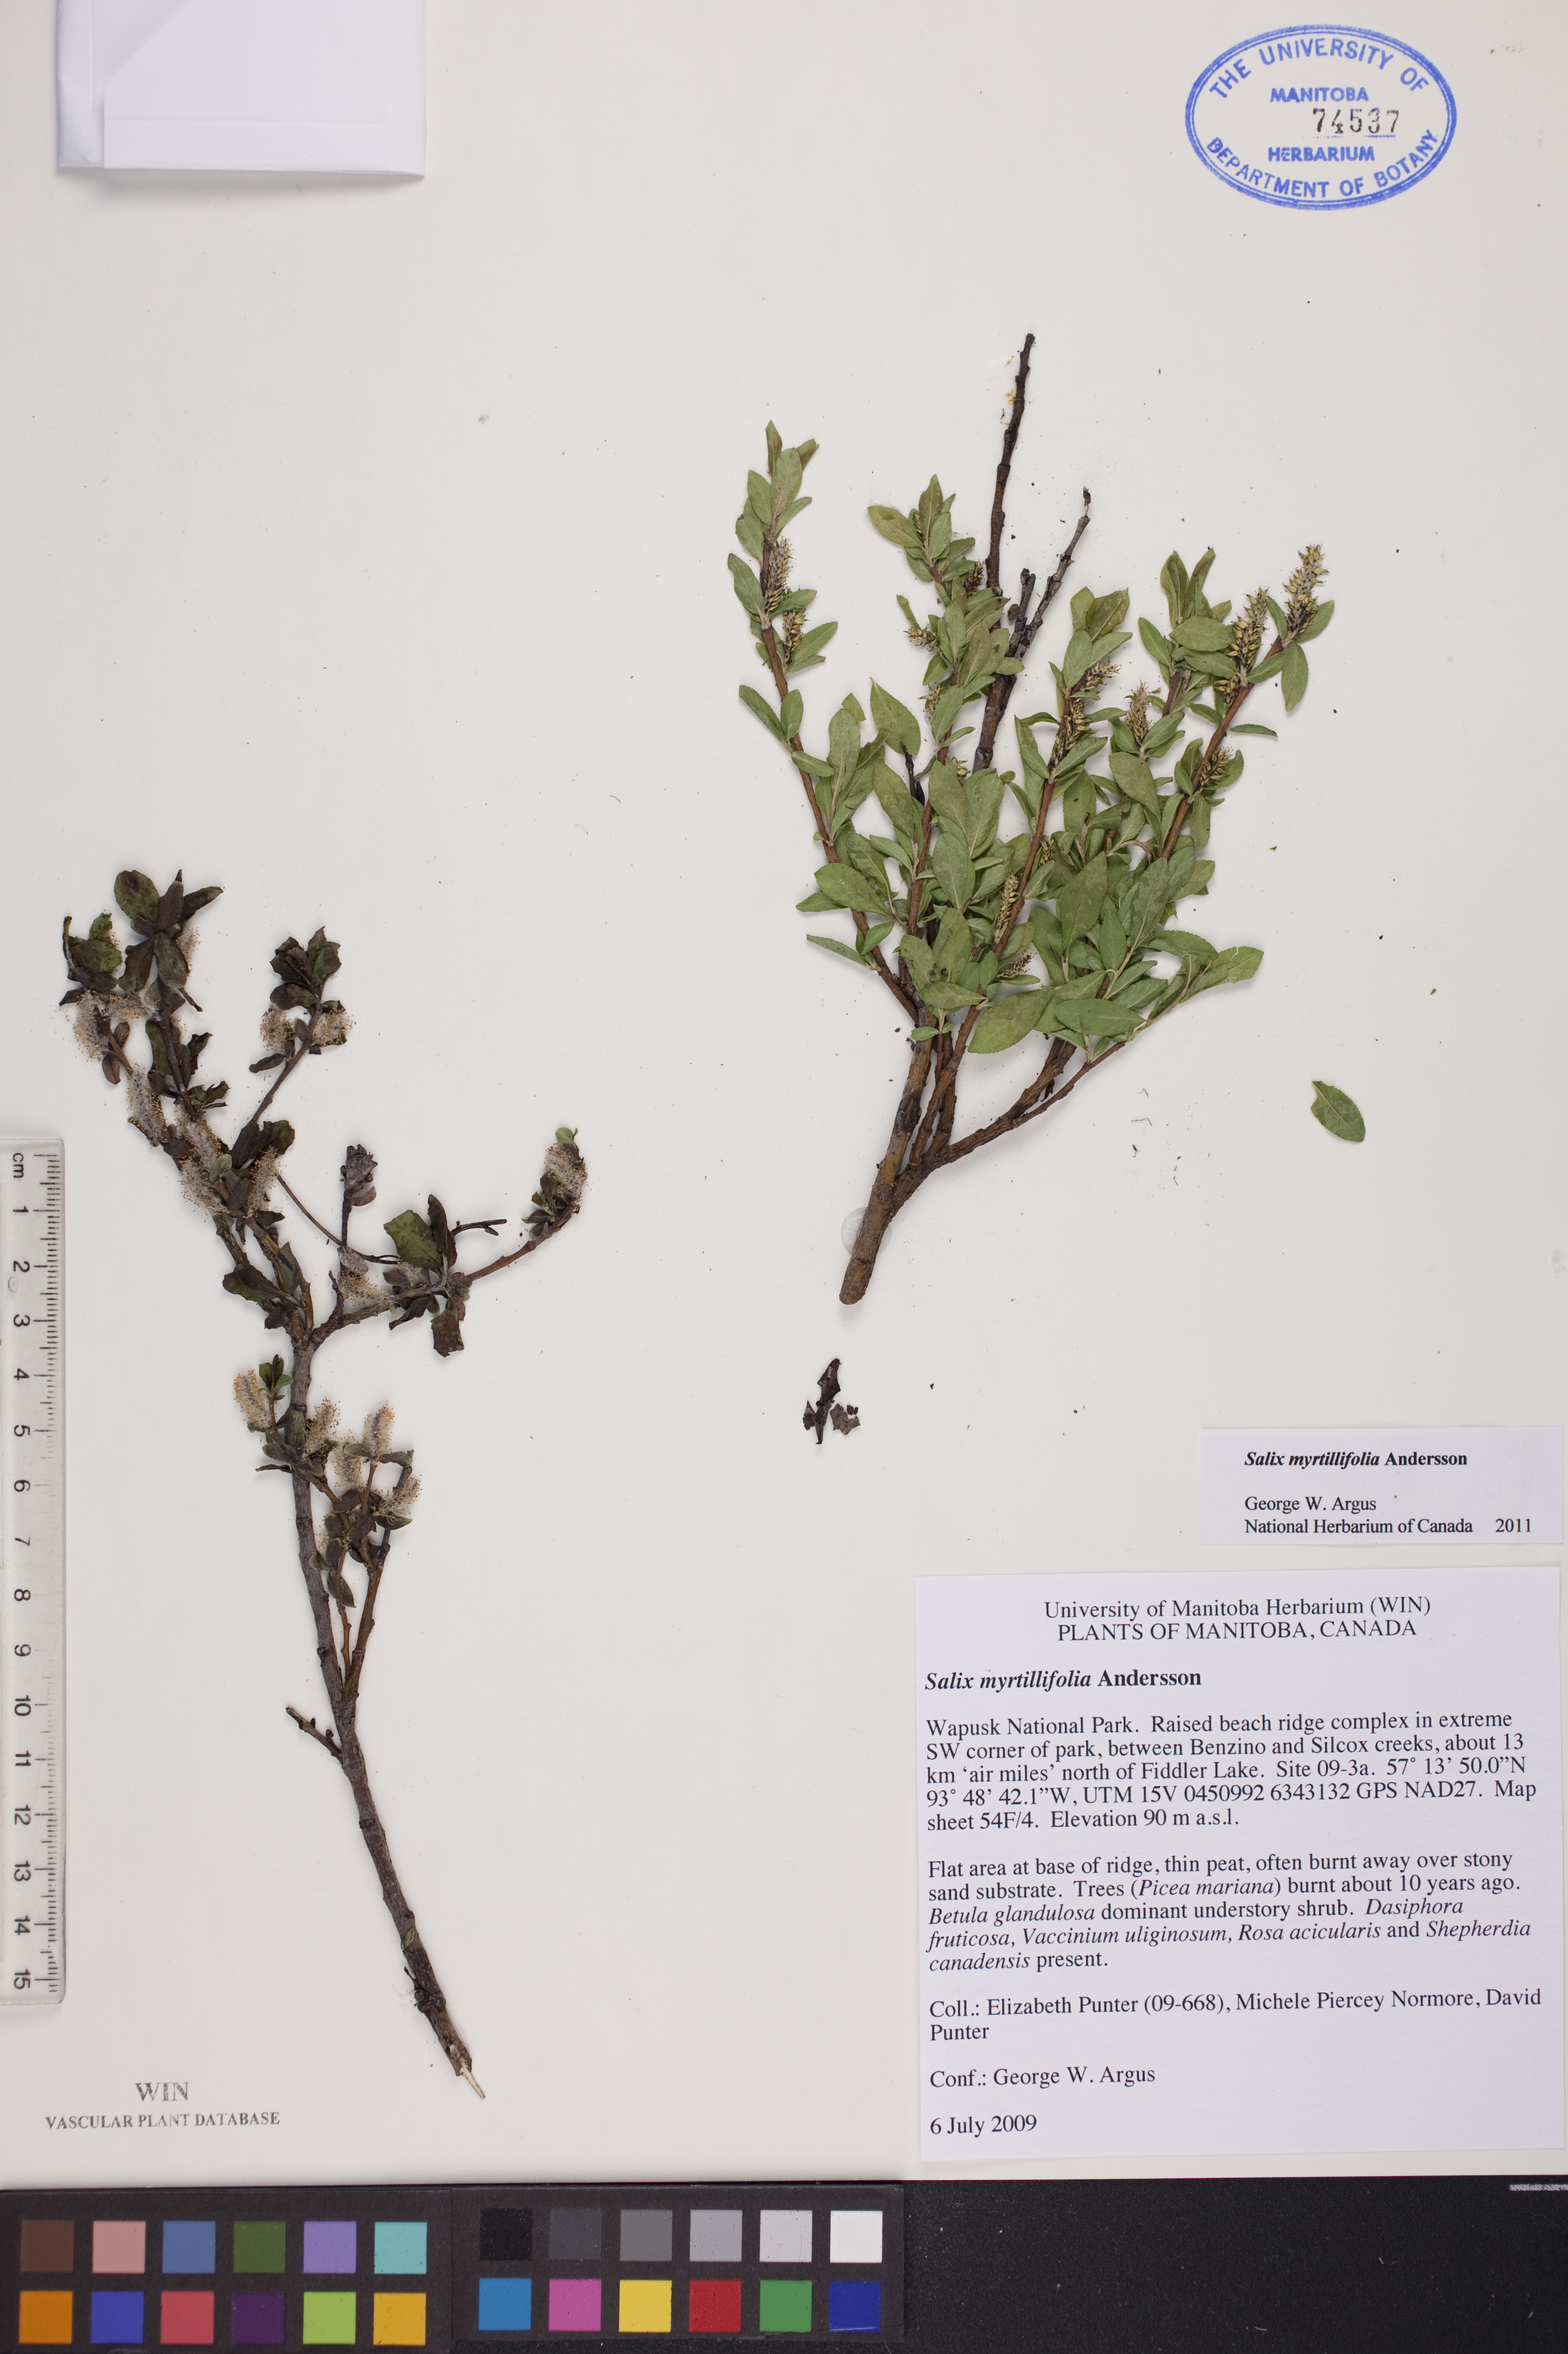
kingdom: Plantae
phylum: Tracheophyta
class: Magnoliopsida
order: Malpighiales
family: Salicaceae
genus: Salix
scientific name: Salix myrtillifolia
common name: Bilberry willow
